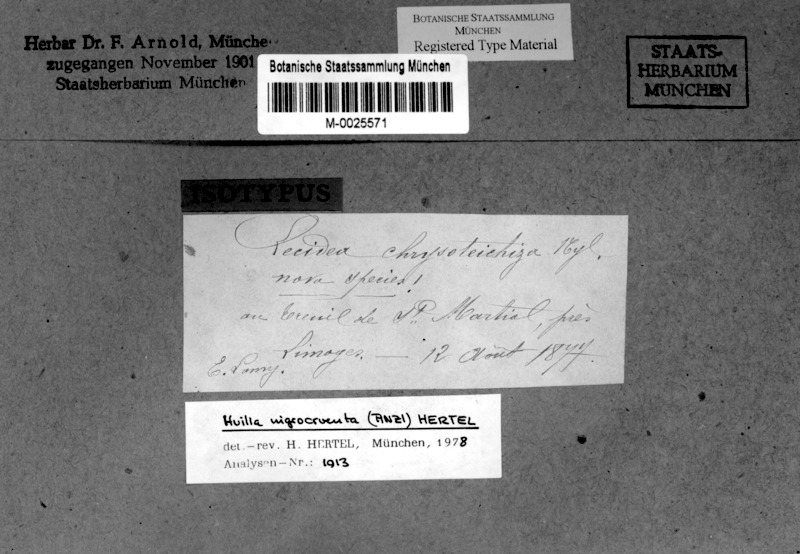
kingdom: Fungi
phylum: Ascomycota
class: Lecanoromycetes
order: Lecideales
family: Lecideaceae
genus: Porpidia
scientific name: Porpidia macrocarpa
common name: Common boulder lichen
